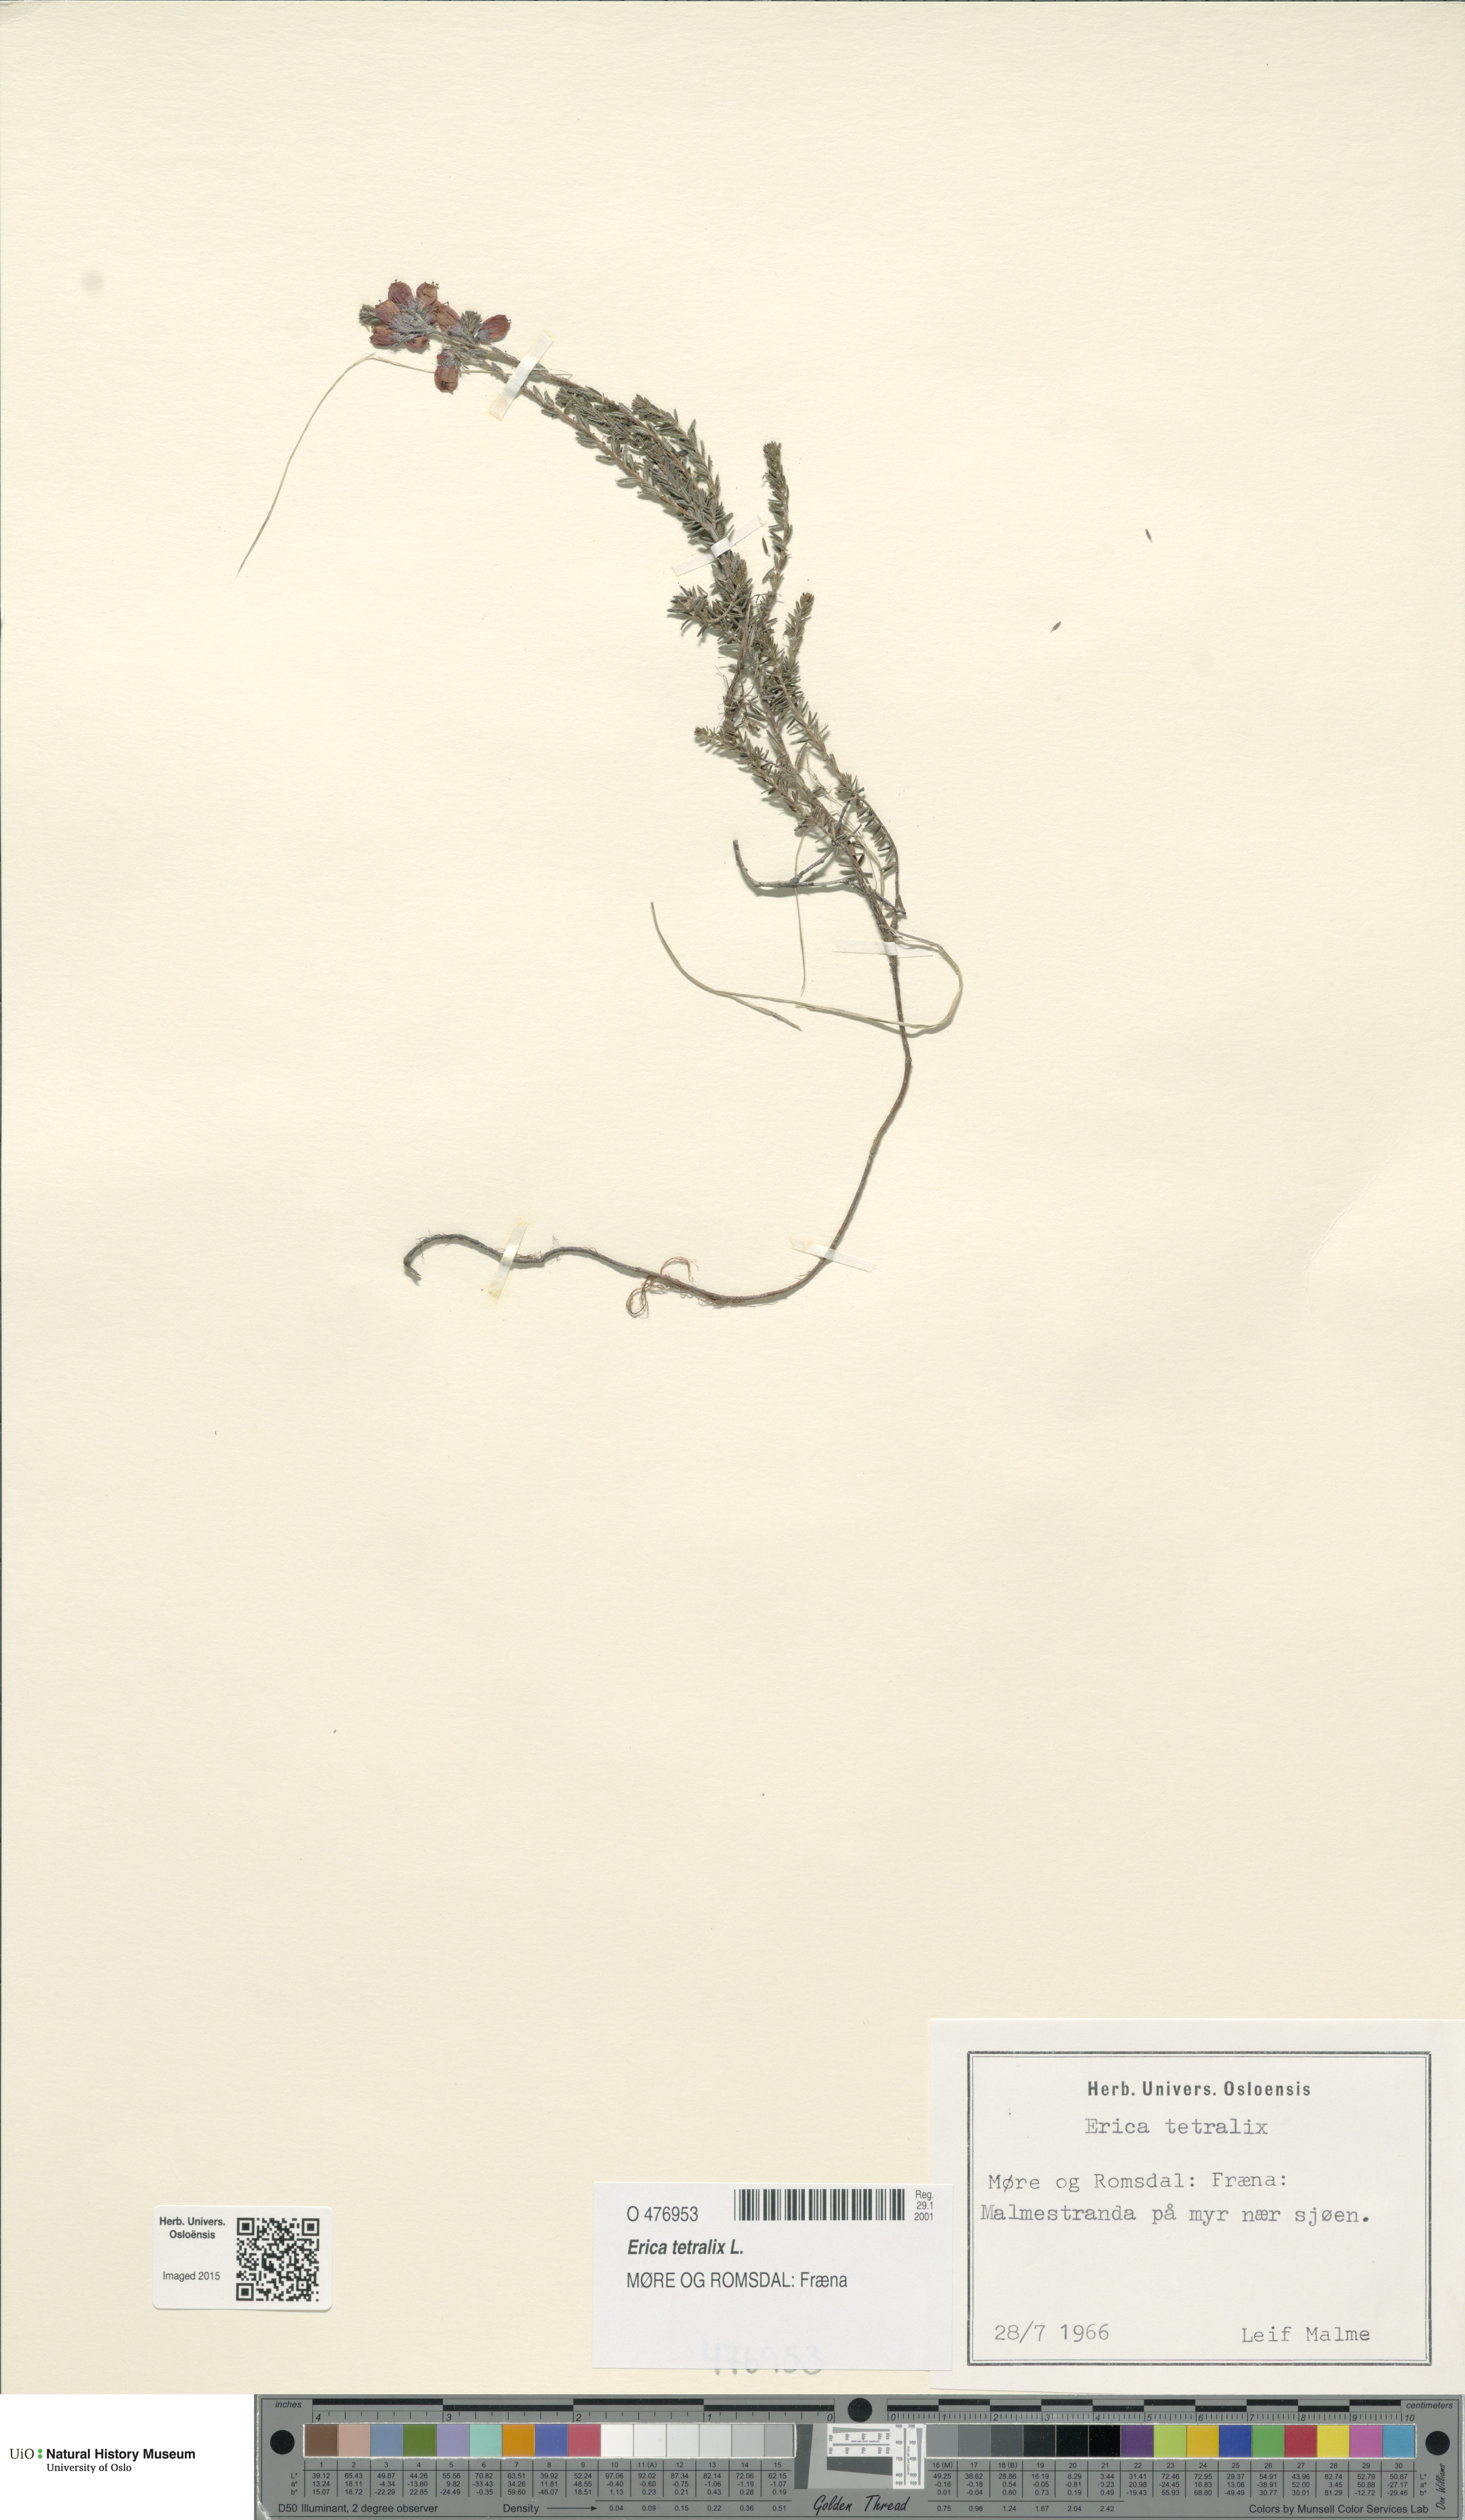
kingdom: Plantae
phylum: Tracheophyta
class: Magnoliopsida
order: Ericales
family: Ericaceae
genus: Erica
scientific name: Erica tetralix
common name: Cross-leaved heath
